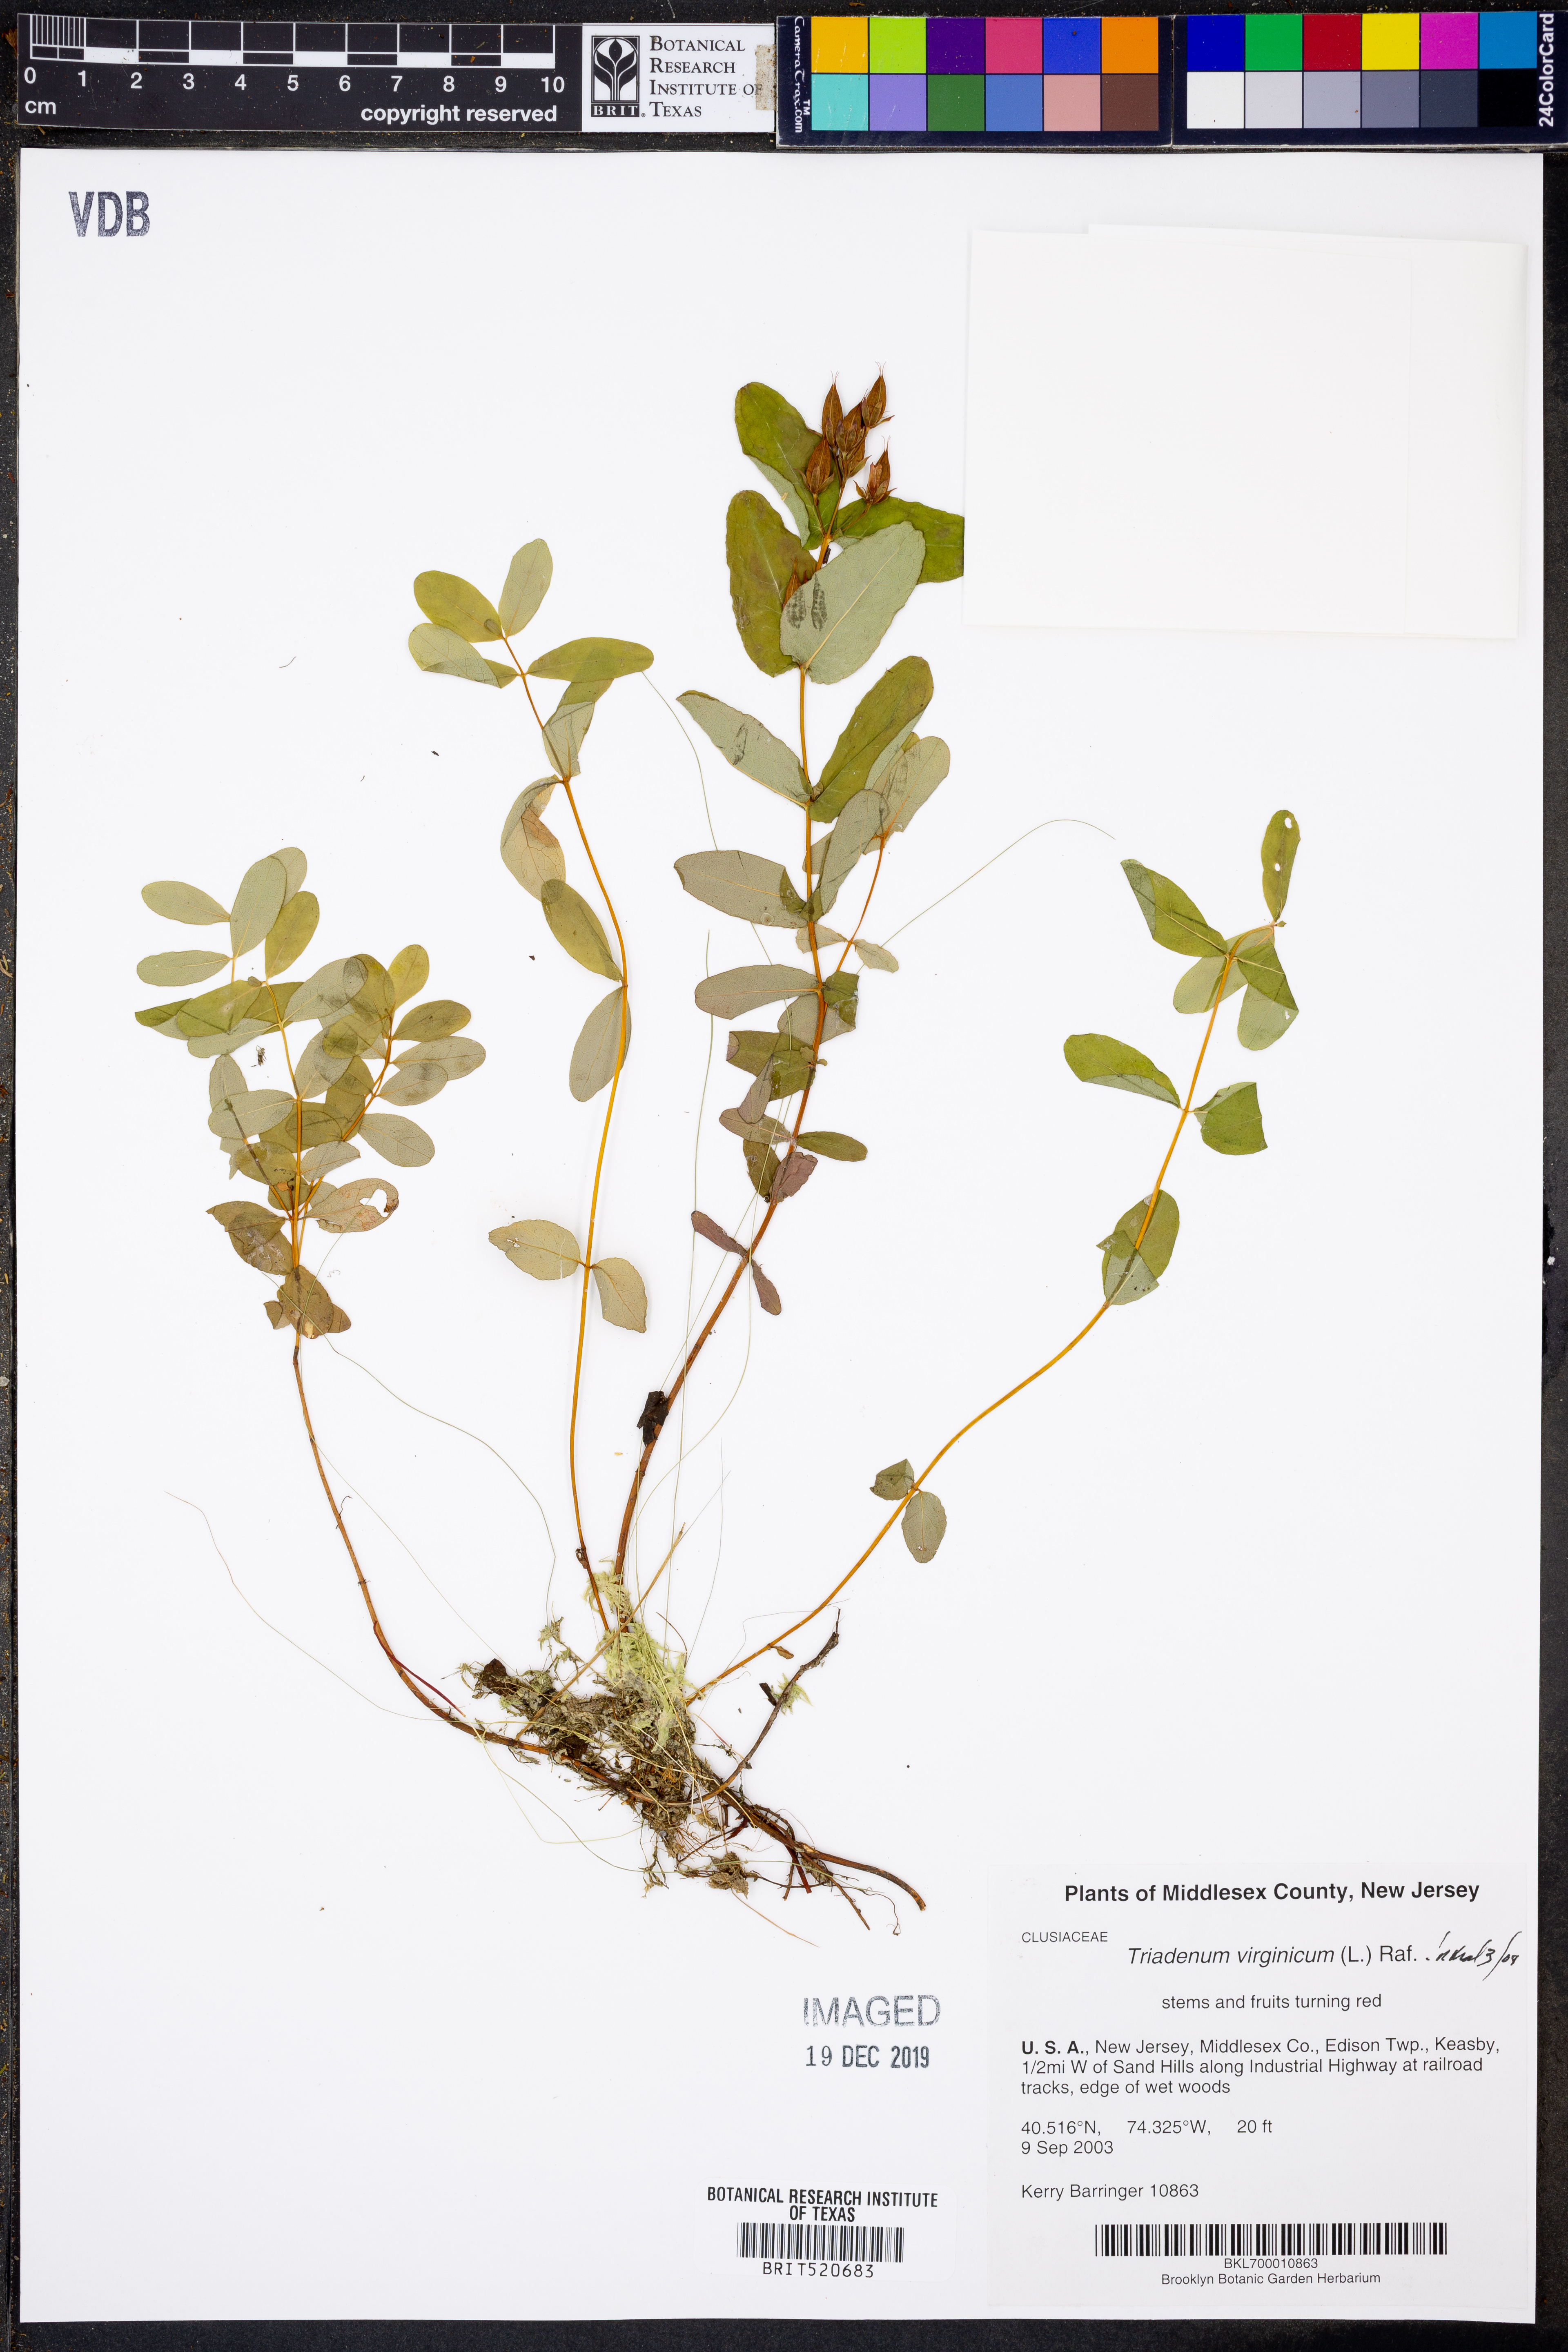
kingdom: Plantae
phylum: Tracheophyta
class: Magnoliopsida
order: Malpighiales
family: Hypericaceae
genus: Triadenum
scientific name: Triadenum virginicum
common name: Marsh st. john's-wort
